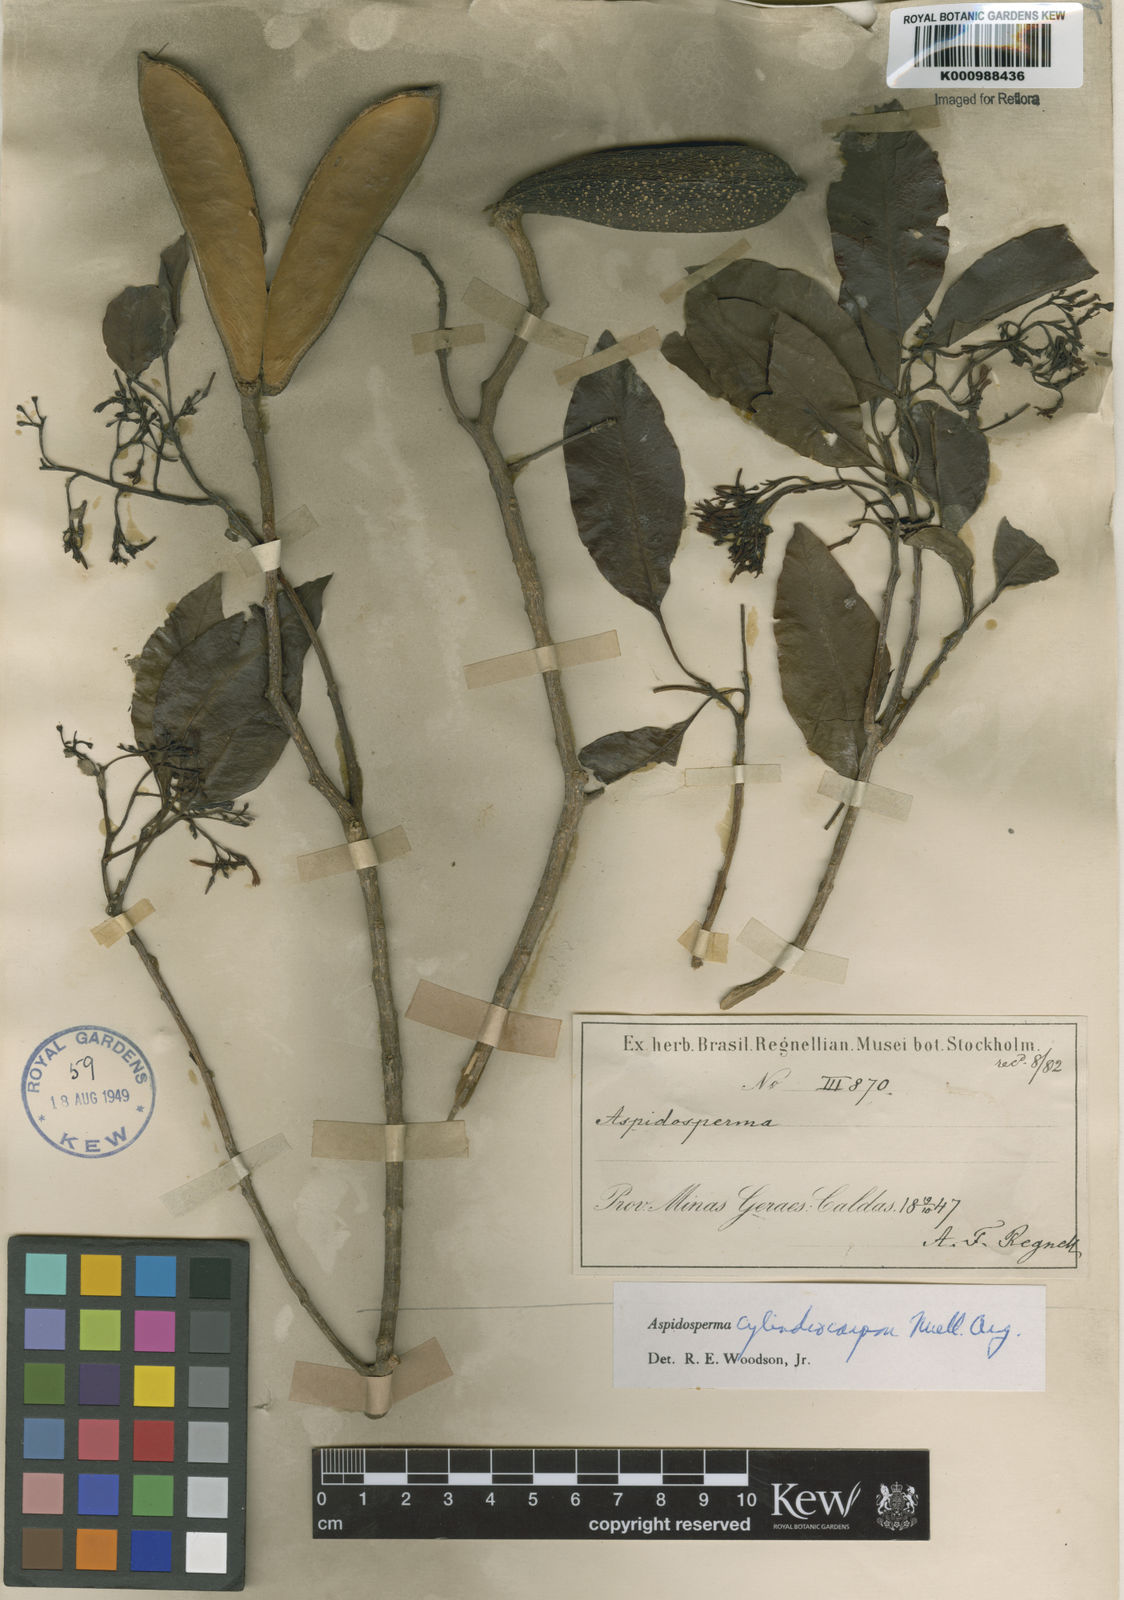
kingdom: Plantae
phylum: Tracheophyta
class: Magnoliopsida
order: Gentianales
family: Apocynaceae
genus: Aspidosperma
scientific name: Aspidosperma
